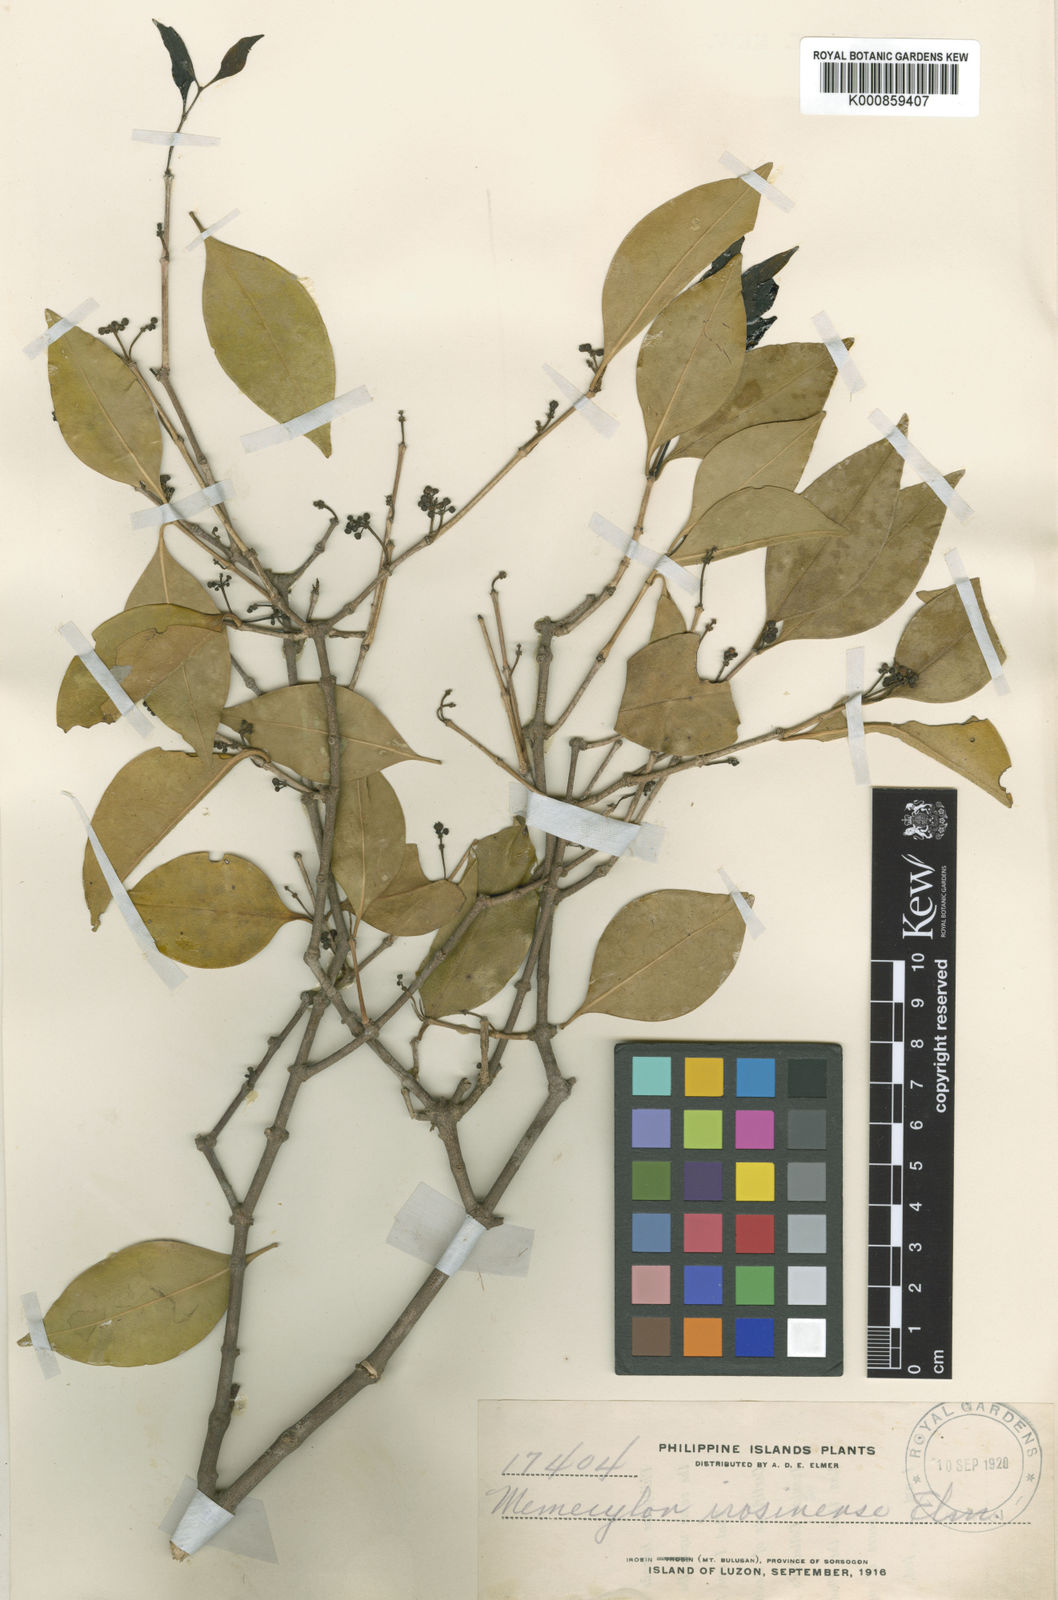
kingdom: Plantae
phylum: Tracheophyta
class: Magnoliopsida
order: Myrtales
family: Melastomataceae
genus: Memecylon
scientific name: Memecylon lanceolatum
